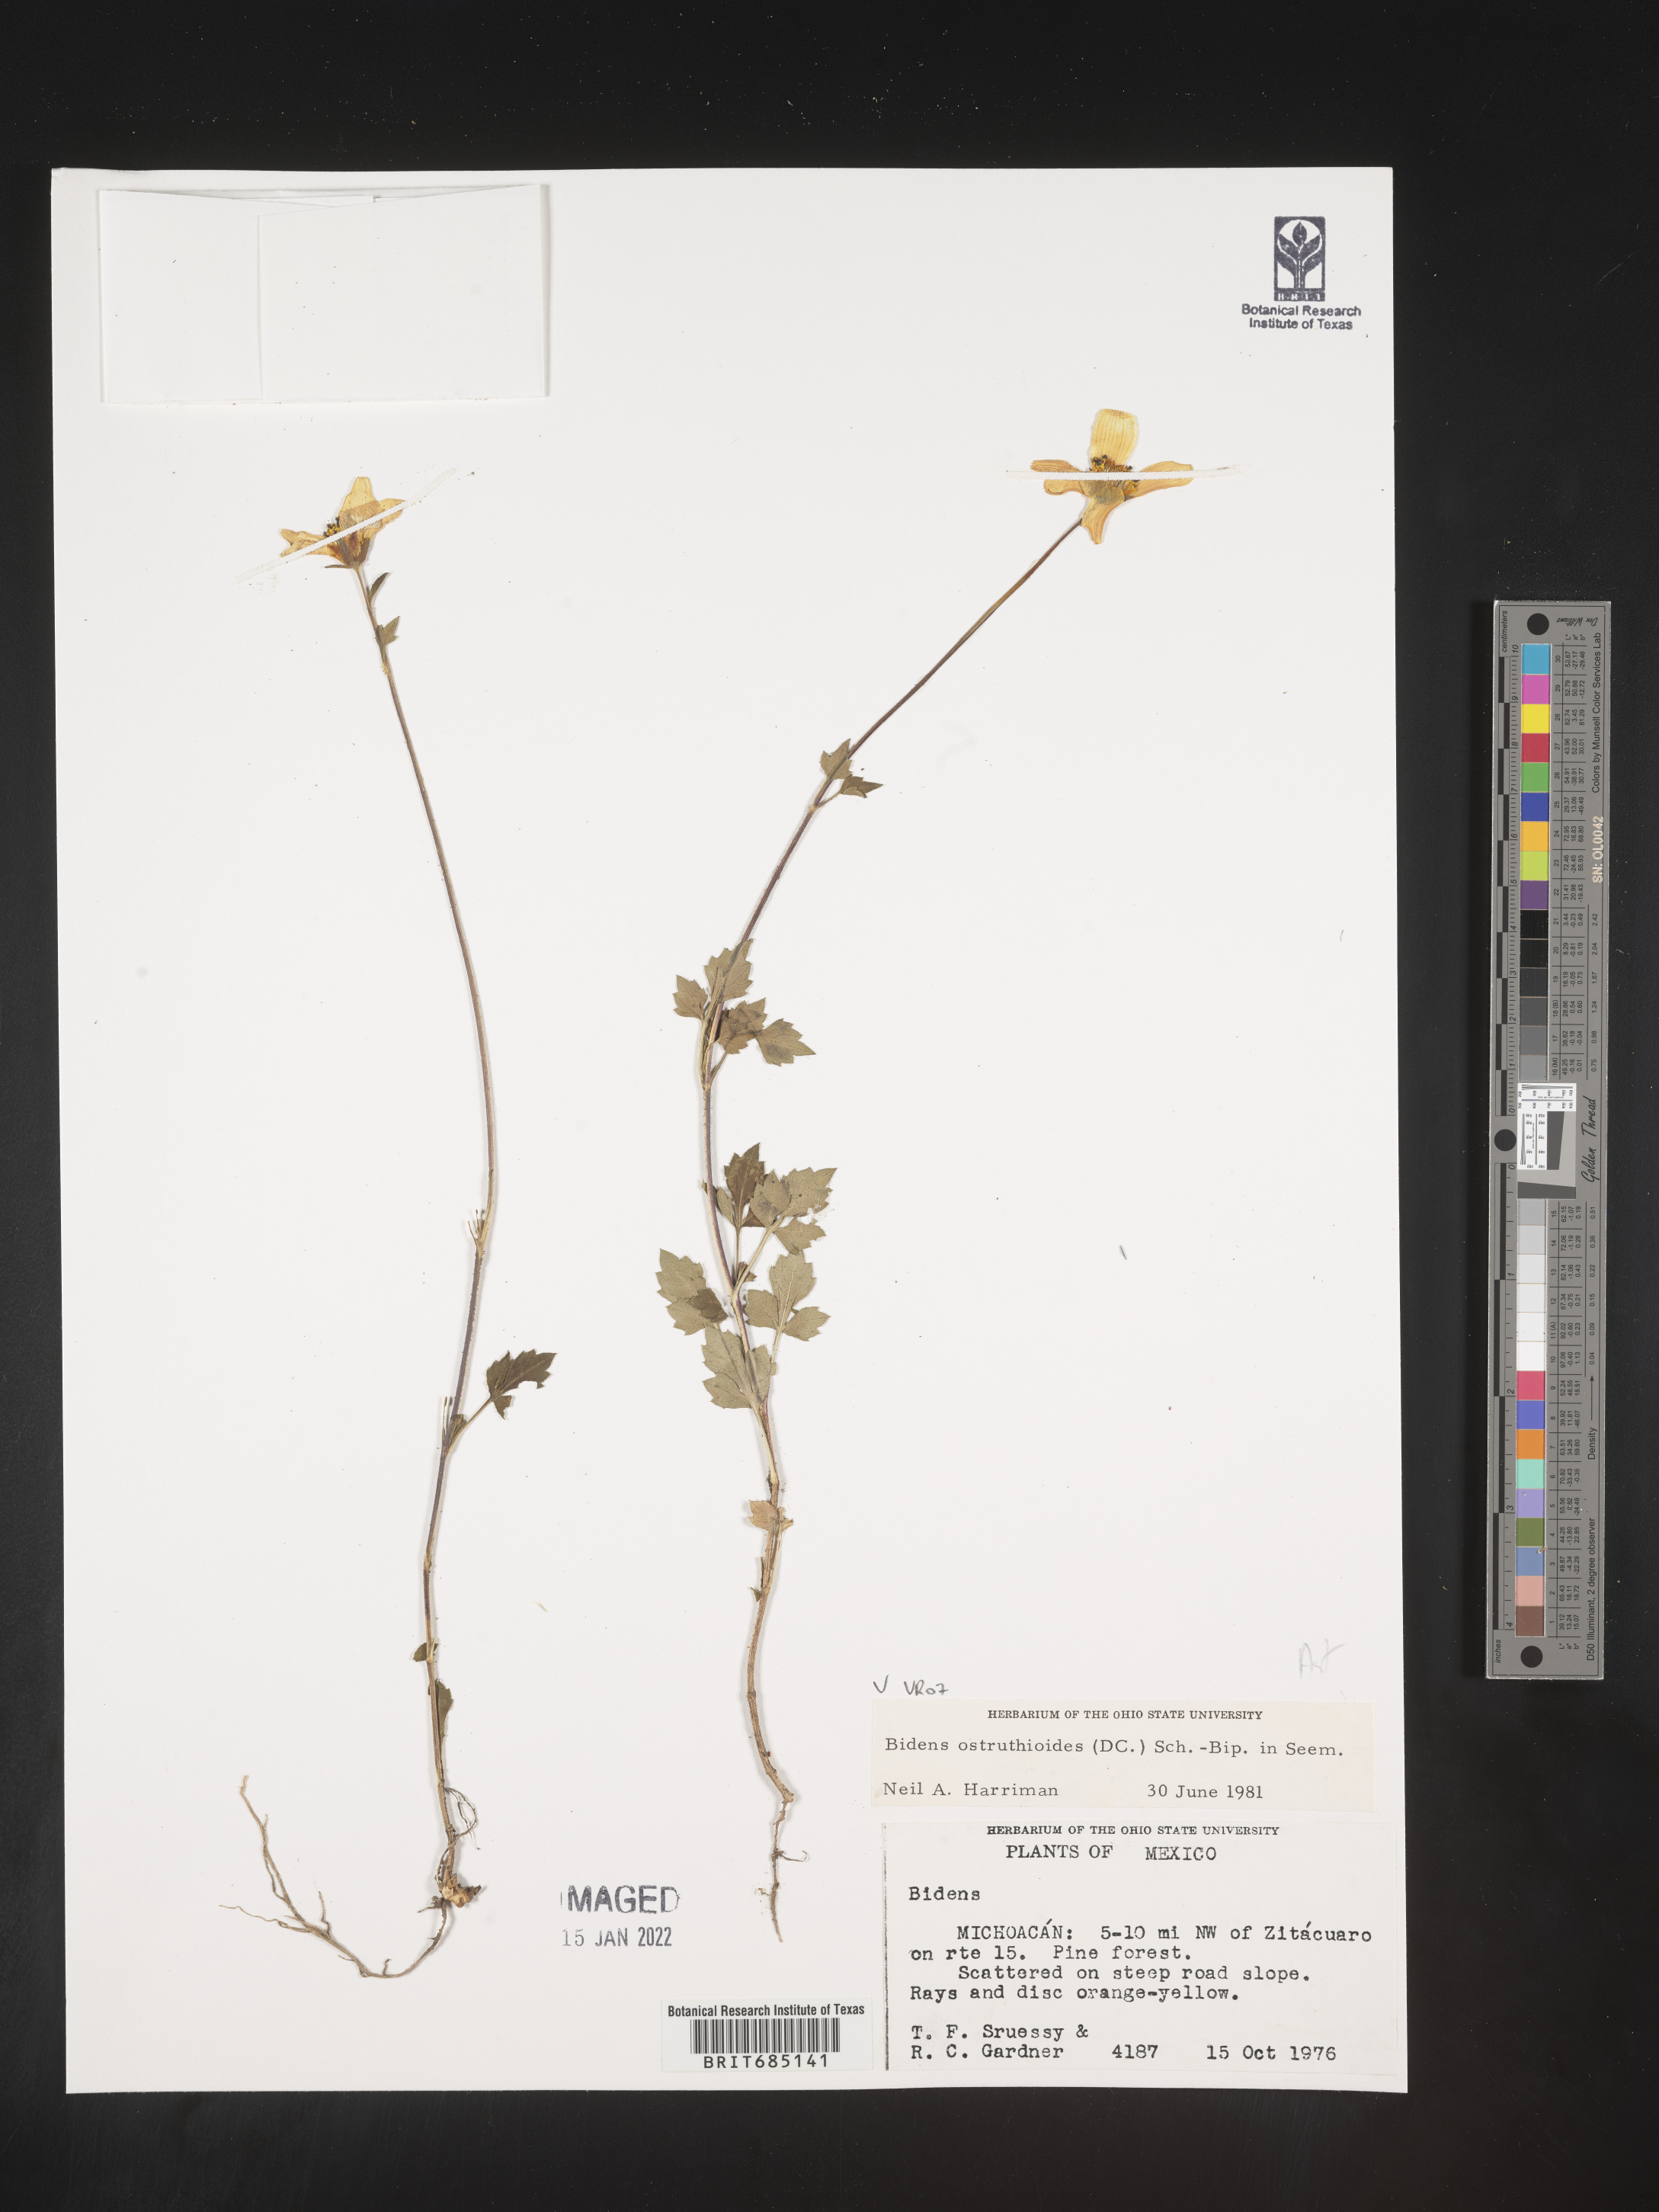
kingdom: Plantae
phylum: Tracheophyta
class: Magnoliopsida
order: Asterales
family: Asteraceae
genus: Bidens
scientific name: Bidens
